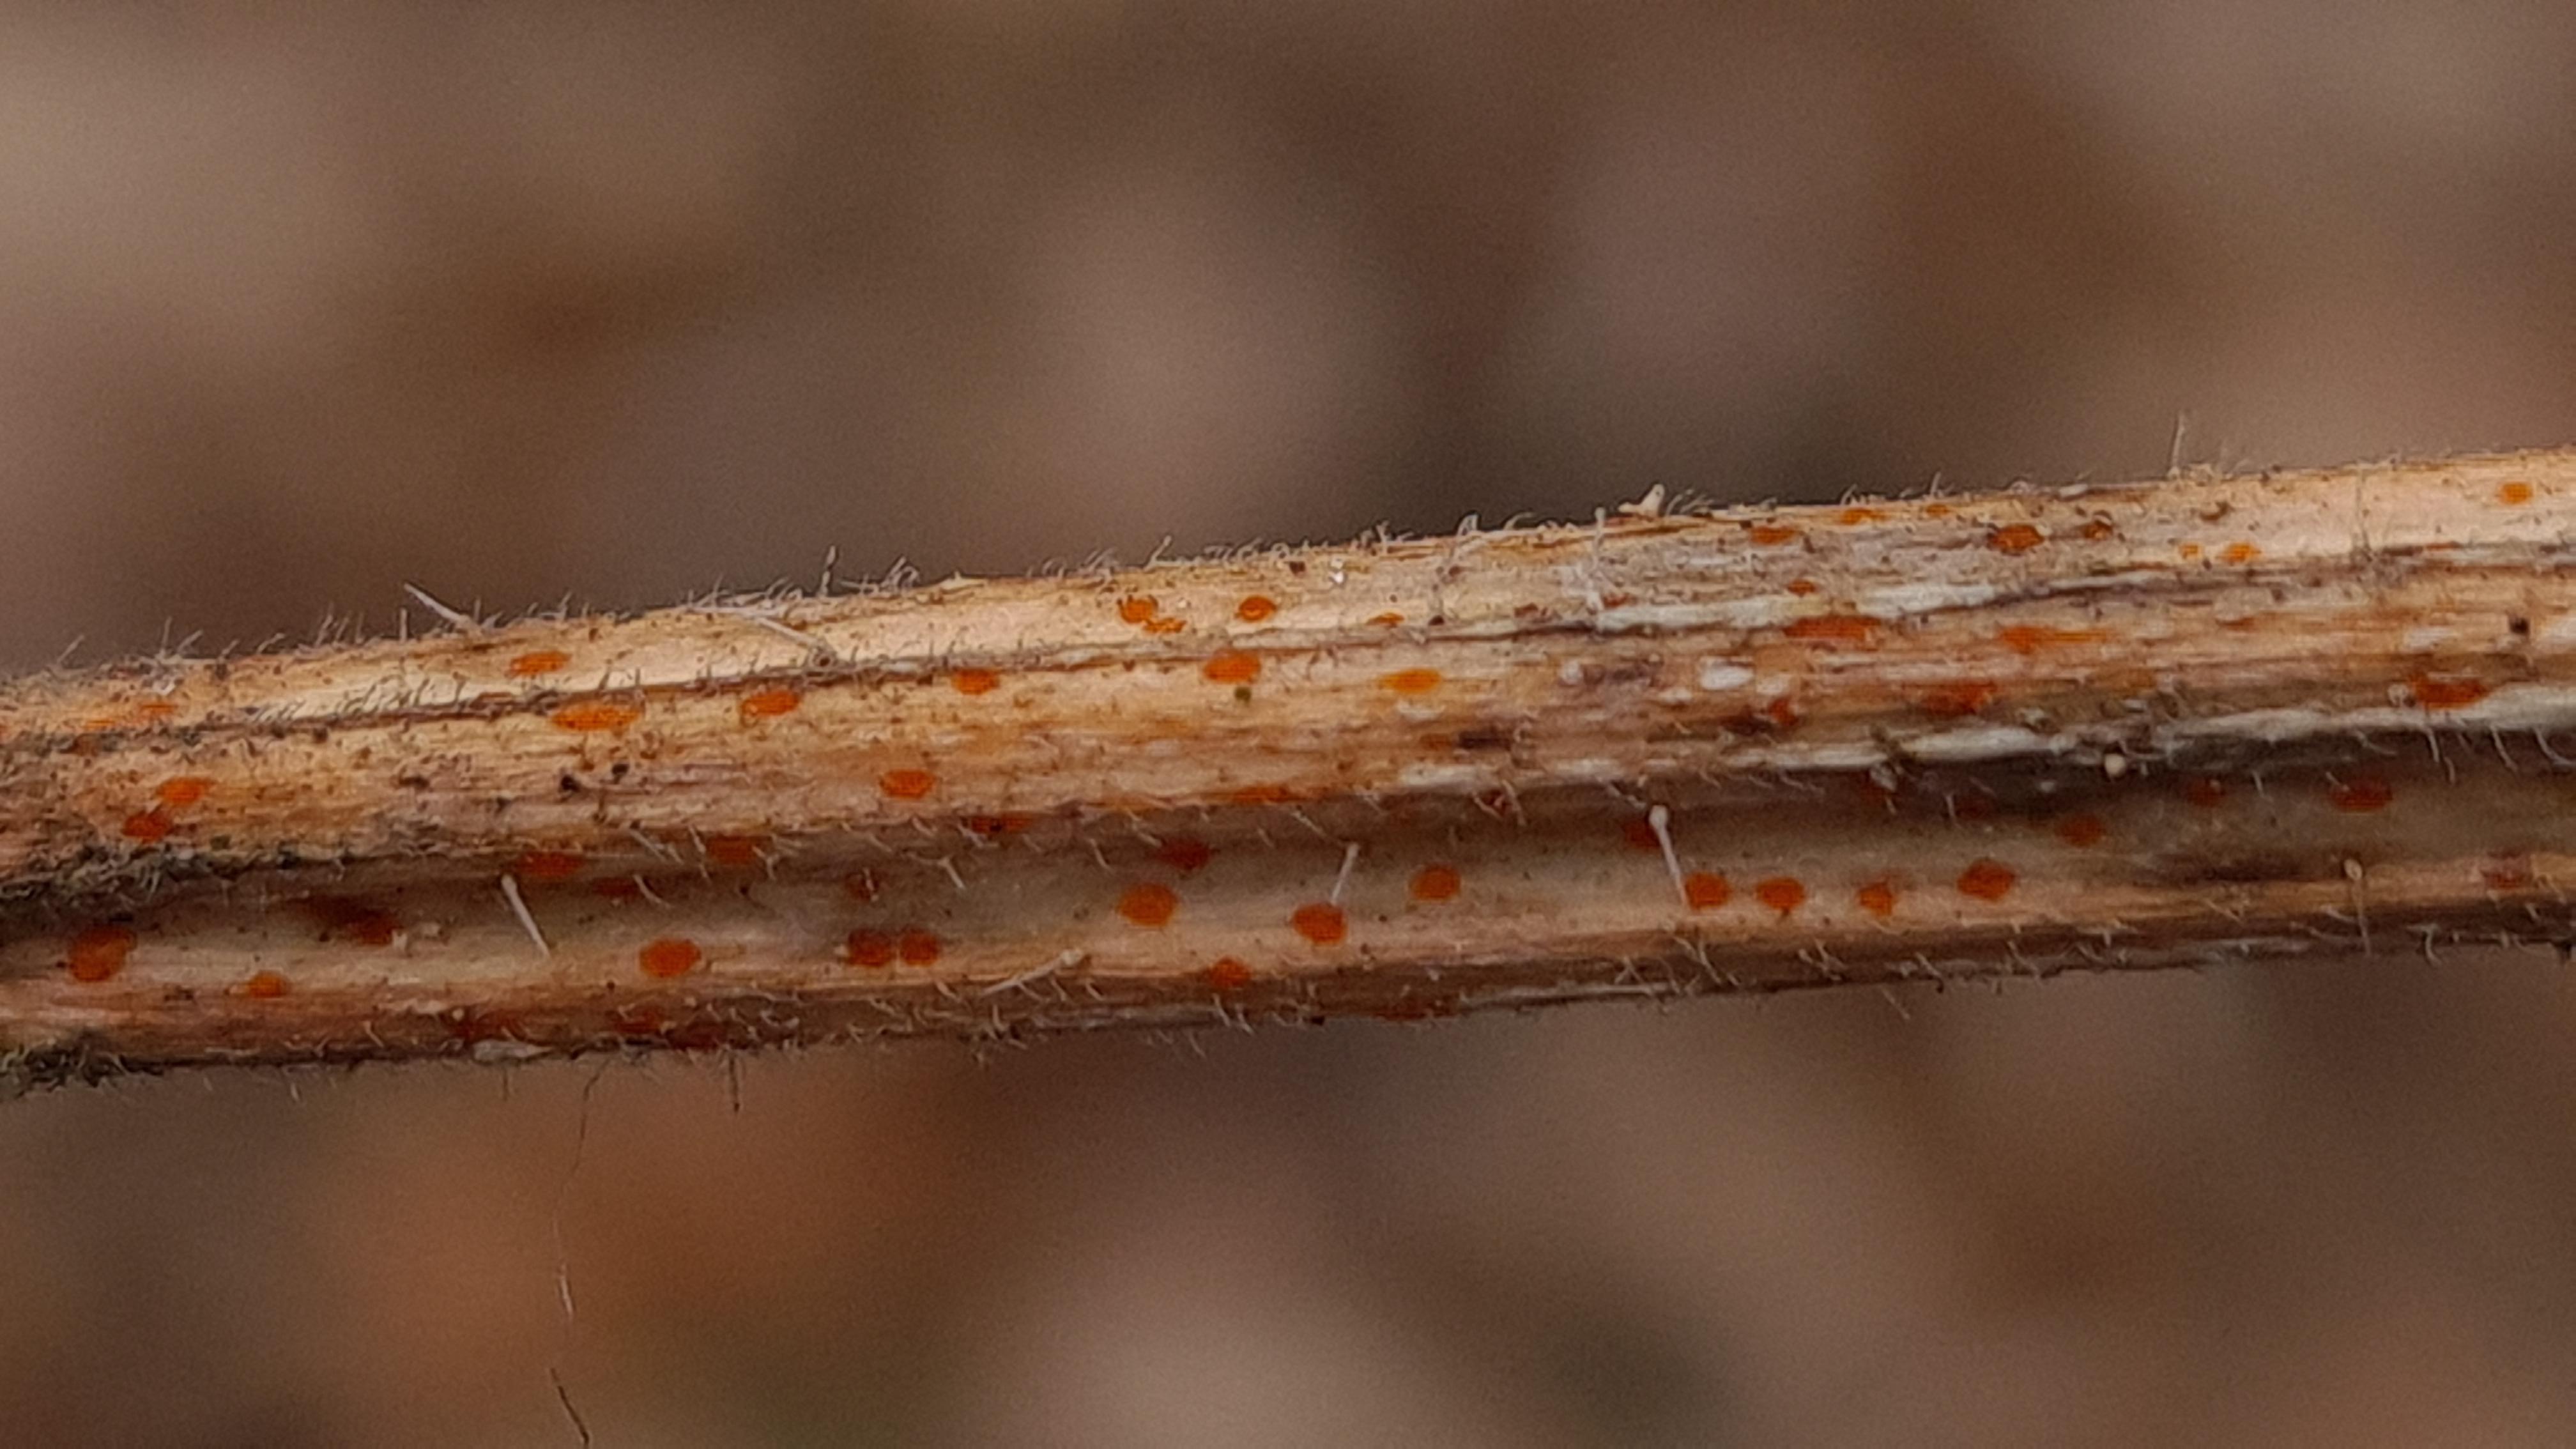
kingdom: Fungi
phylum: Ascomycota
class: Leotiomycetes
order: Helotiales
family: Calloriaceae
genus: Calloria
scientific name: Calloria urticae
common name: nælde-orangeskive
